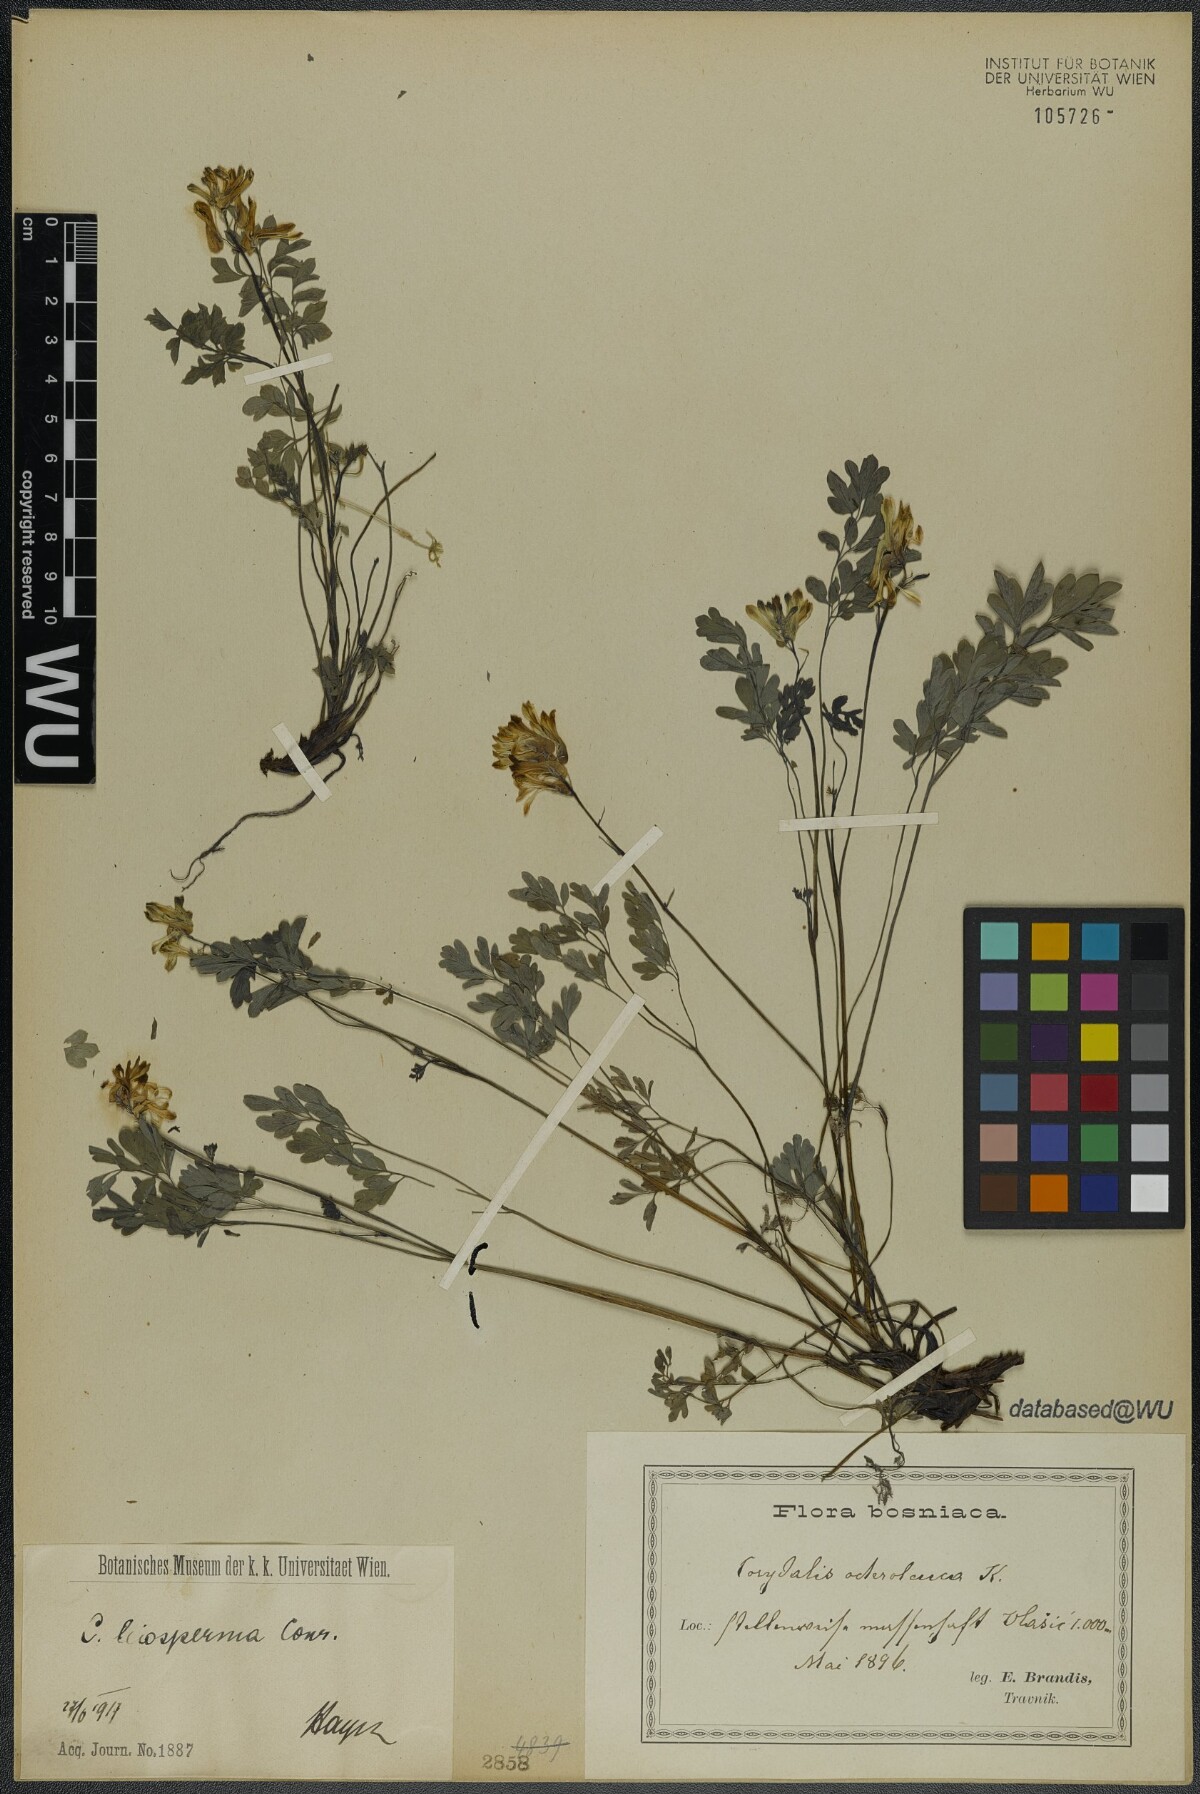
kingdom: Plantae
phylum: Tracheophyta
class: Magnoliopsida
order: Ranunculales
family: Papaveraceae
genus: Pseudofumaria
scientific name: Pseudofumaria alba
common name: Pale corydalis
